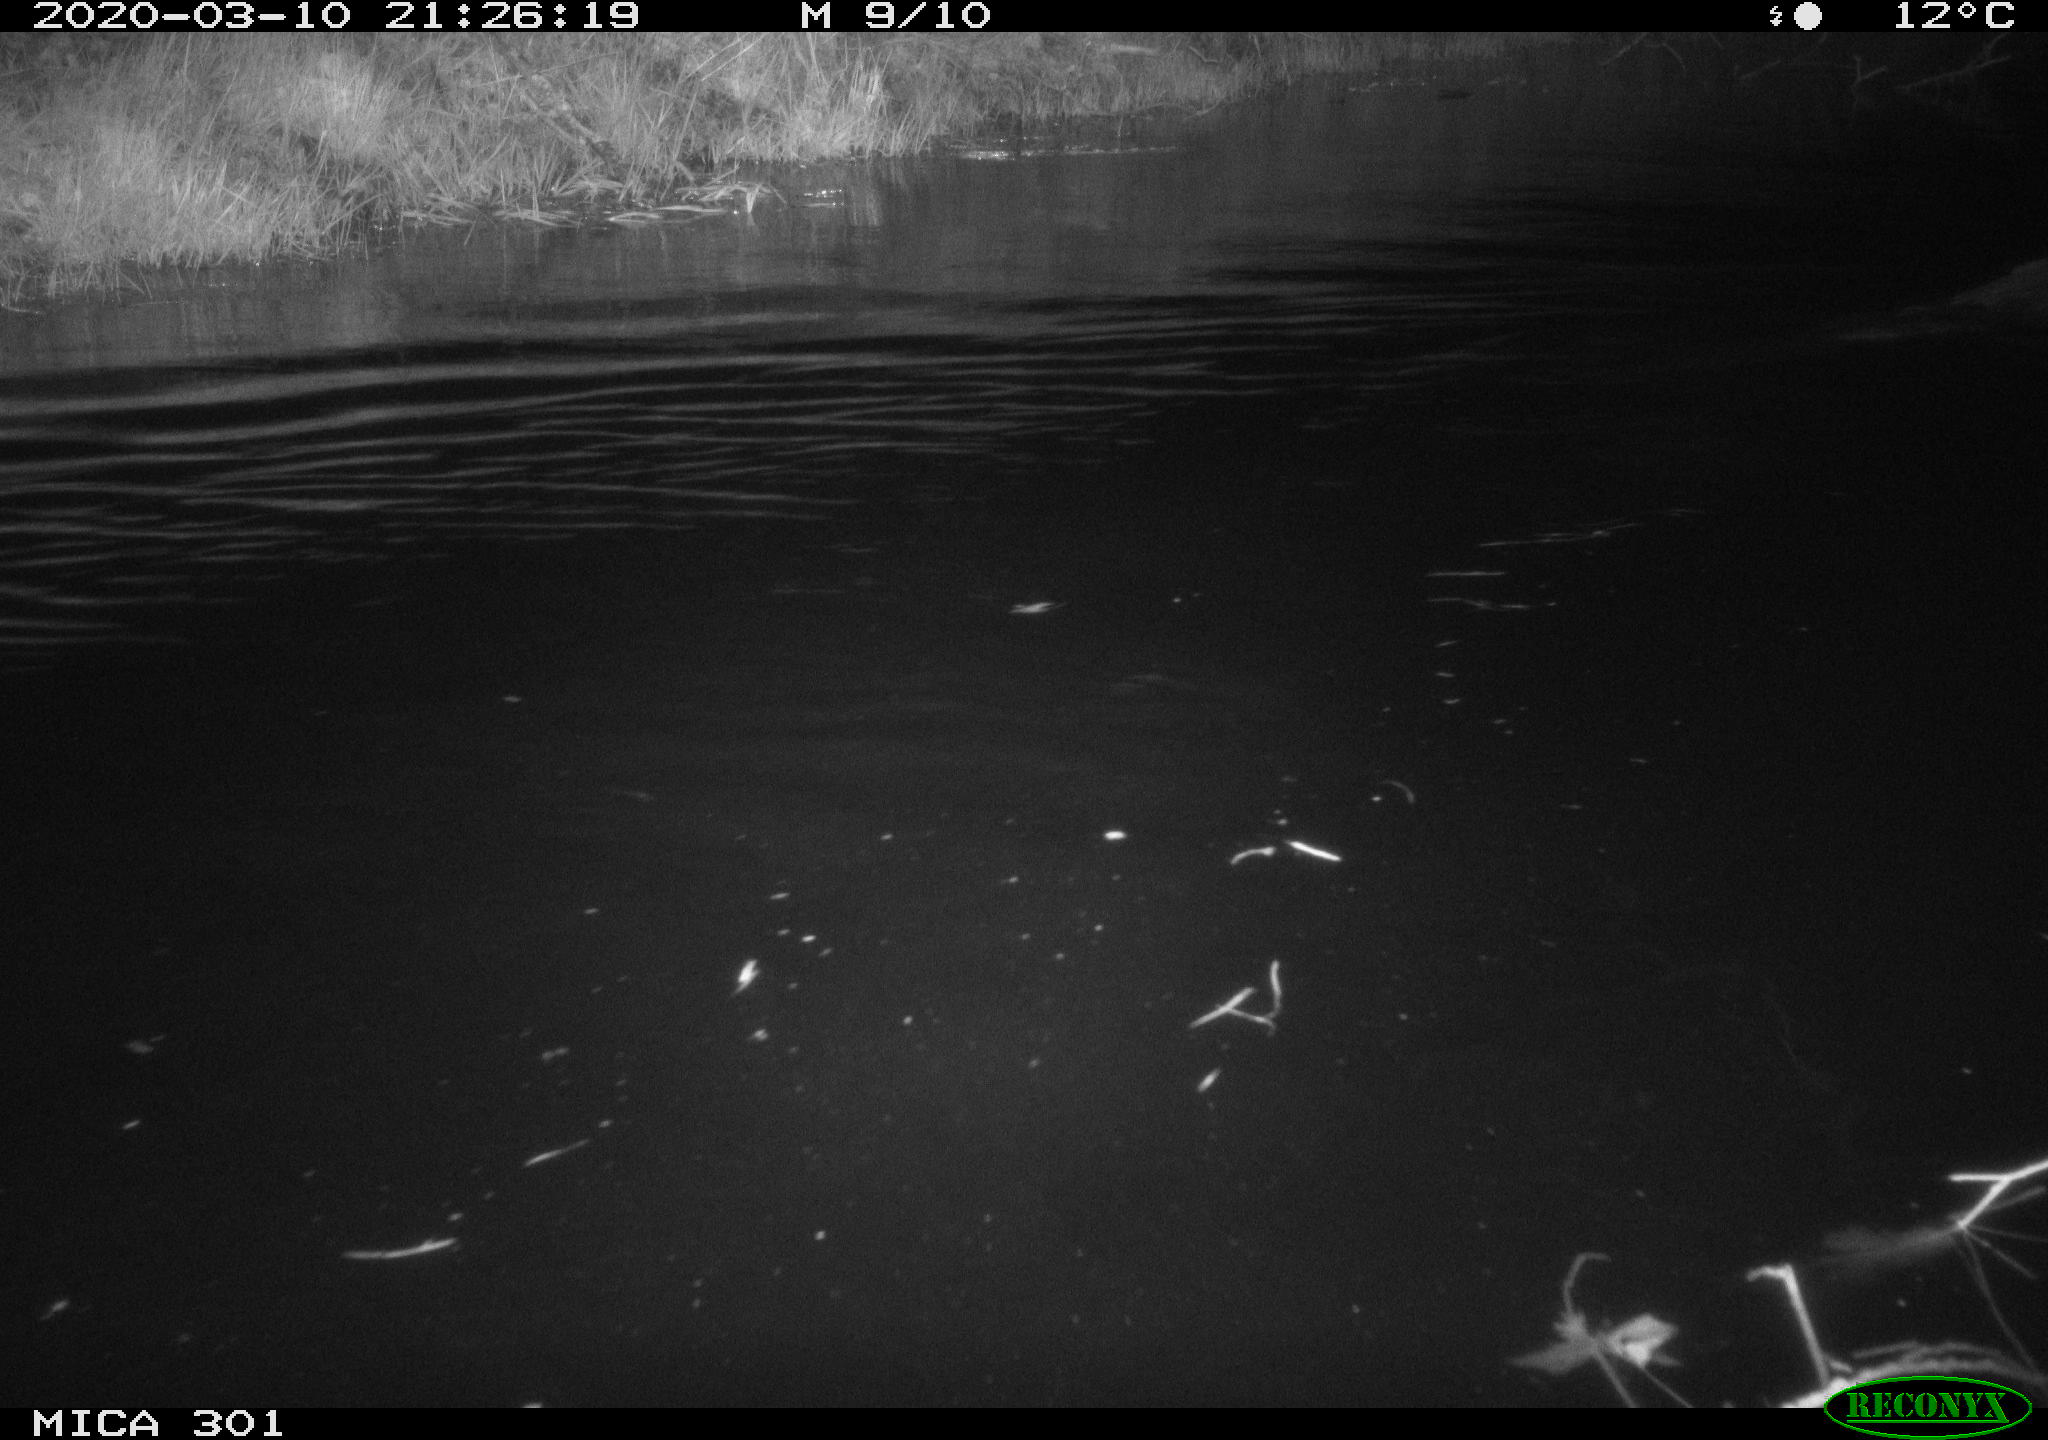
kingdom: Animalia
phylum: Chordata
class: Mammalia
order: Rodentia
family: Castoridae
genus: Castor
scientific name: Castor fiber
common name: Eurasian beaver
